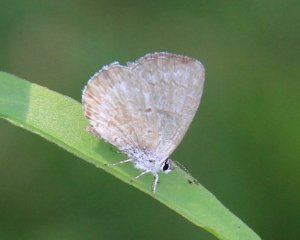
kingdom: Animalia
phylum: Arthropoda
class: Insecta
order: Lepidoptera
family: Lycaenidae
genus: Celastrina
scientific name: Celastrina
